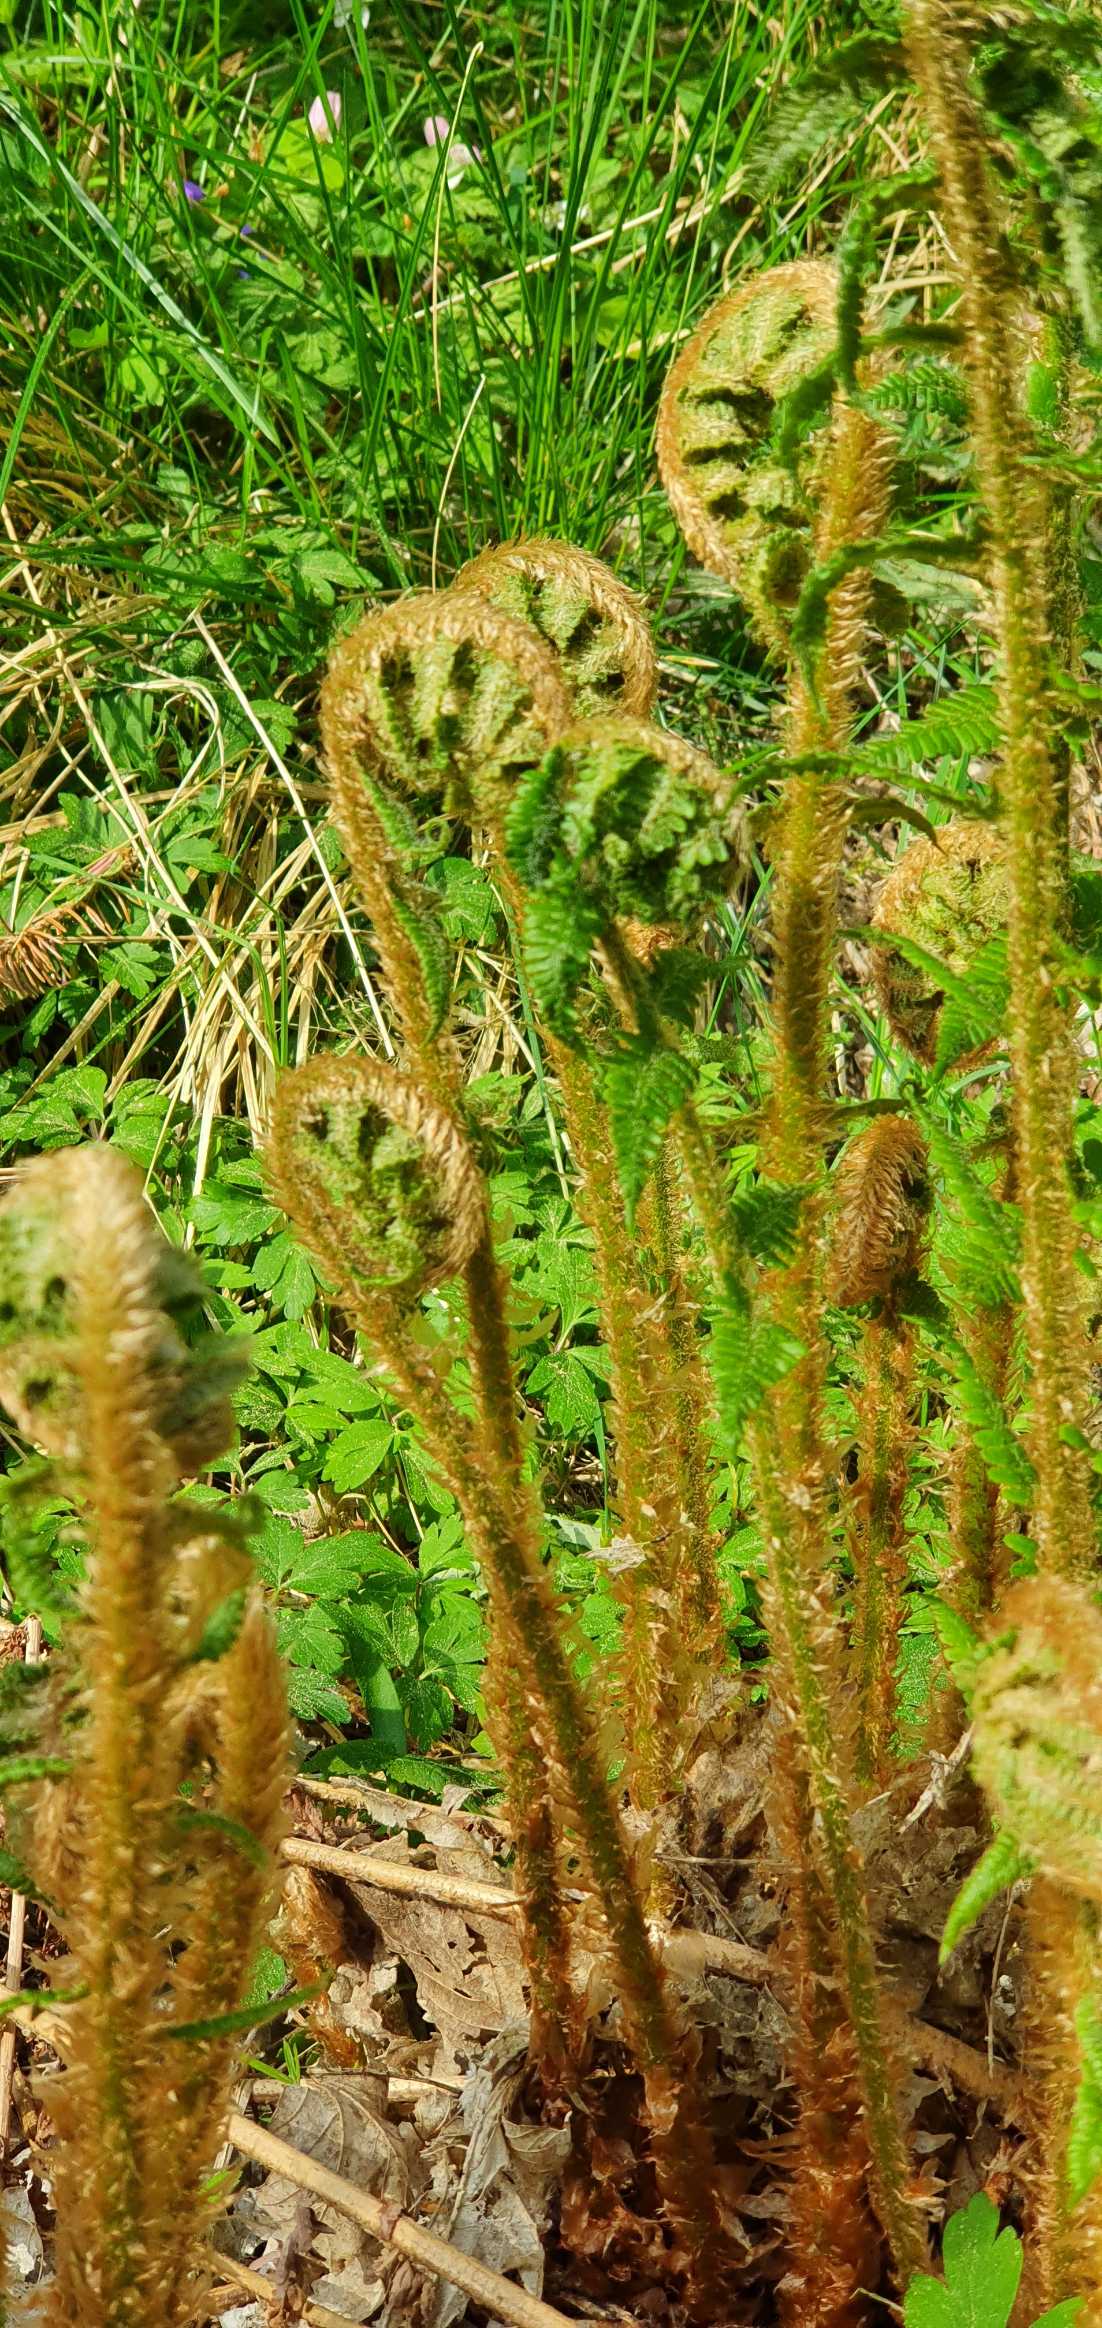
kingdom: Plantae
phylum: Tracheophyta
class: Polypodiopsida
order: Polypodiales
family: Dryopteridaceae
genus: Dryopteris
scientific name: Dryopteris filix-mas
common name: Almindelig mangeløv
